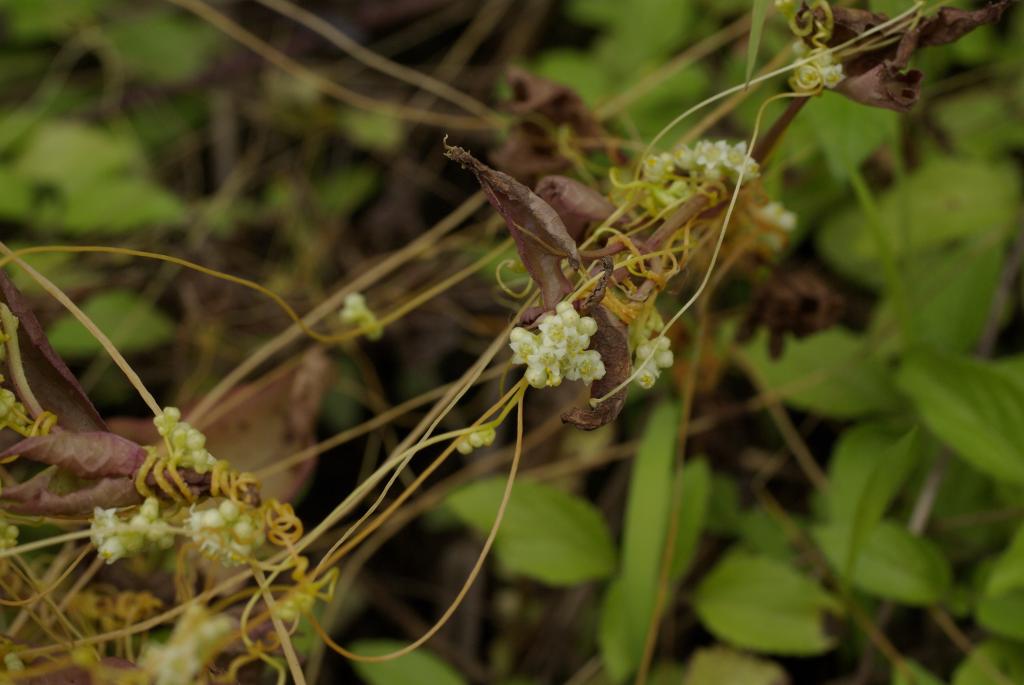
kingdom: Plantae
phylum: Tracheophyta
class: Magnoliopsida
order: Solanales
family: Convolvulaceae
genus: Cuscuta
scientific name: Cuscuta campestris
